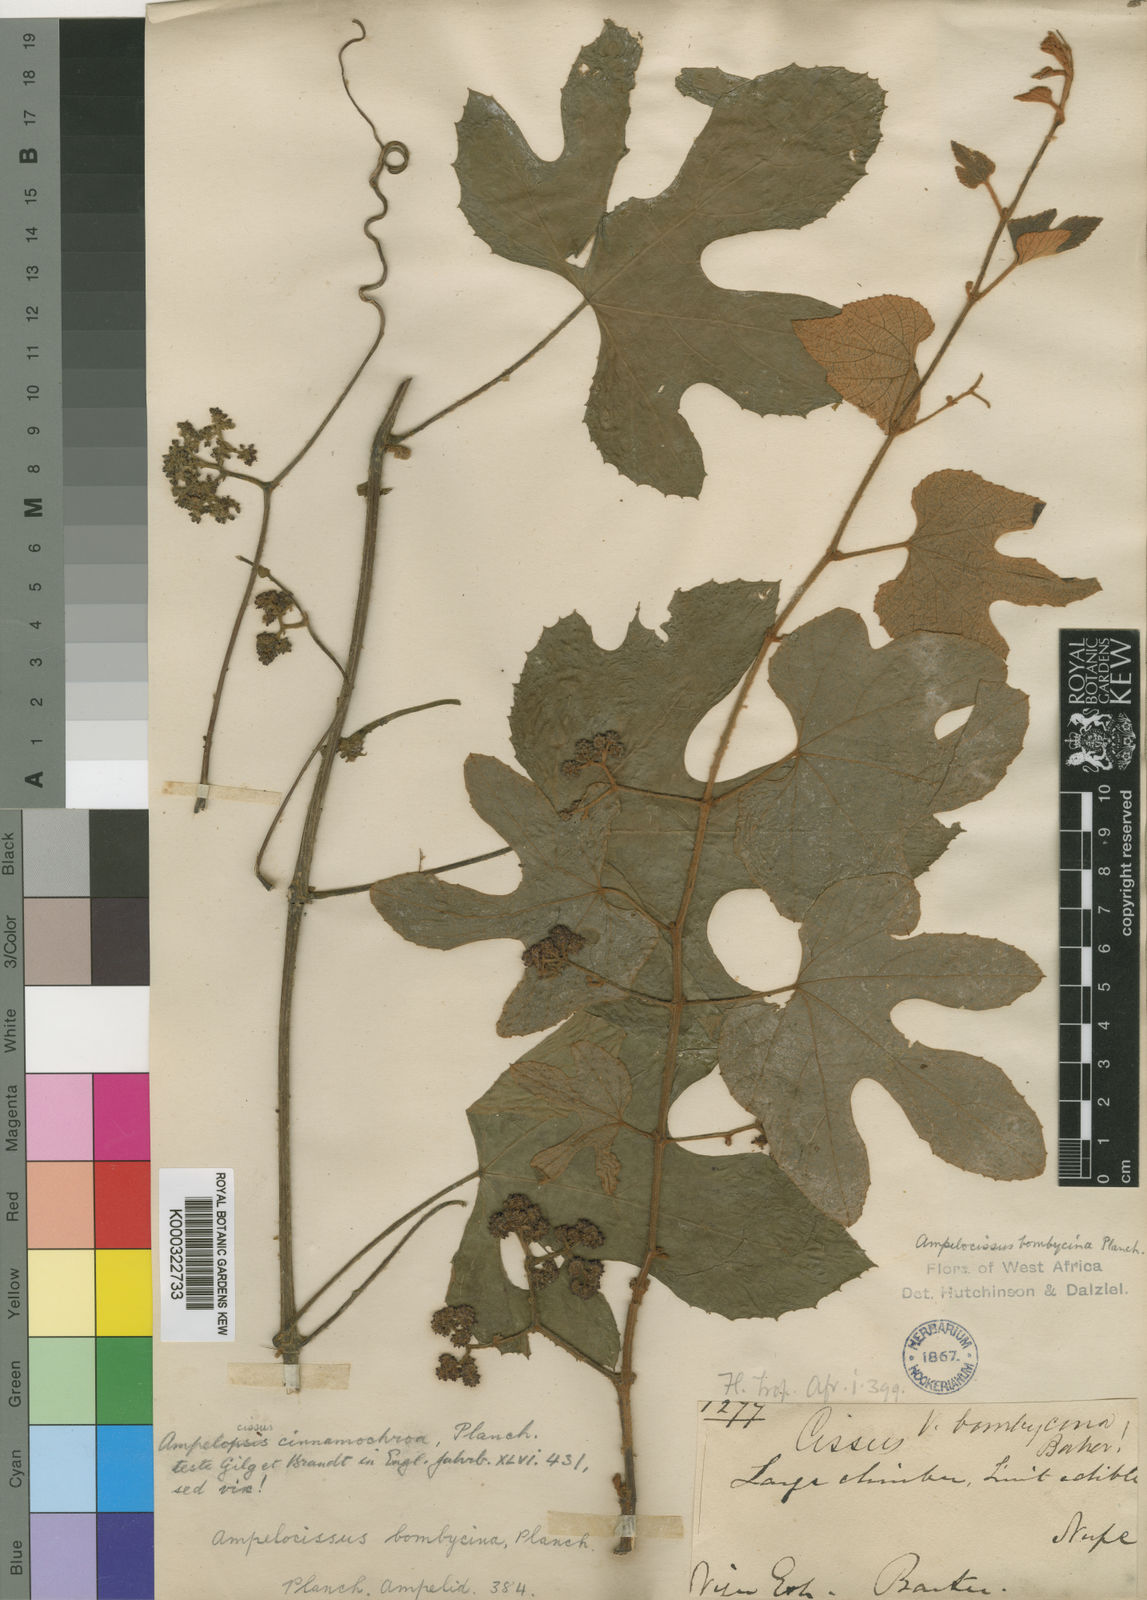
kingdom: Plantae
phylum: Tracheophyta
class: Magnoliopsida
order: Vitales
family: Vitaceae
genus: Ampelocissus
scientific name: Ampelocissus bombycina
